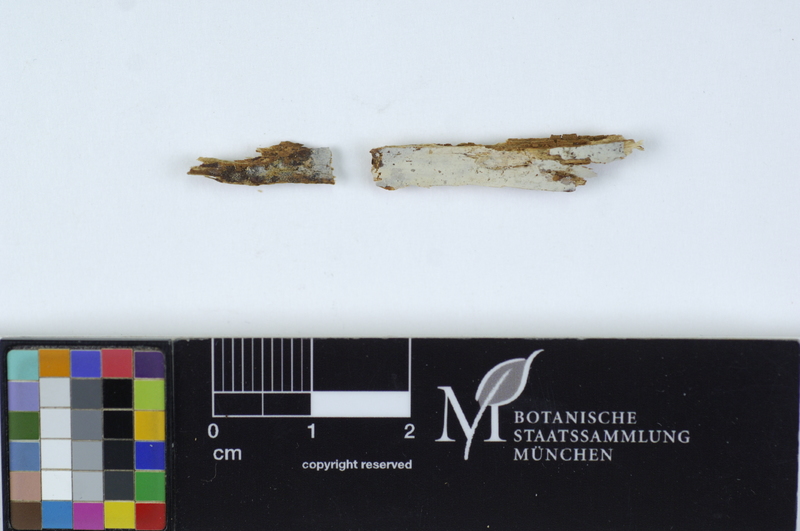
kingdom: Plantae
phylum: Tracheophyta
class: Pinopsida
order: Pinales
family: Pinaceae
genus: Abies
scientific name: Abies
